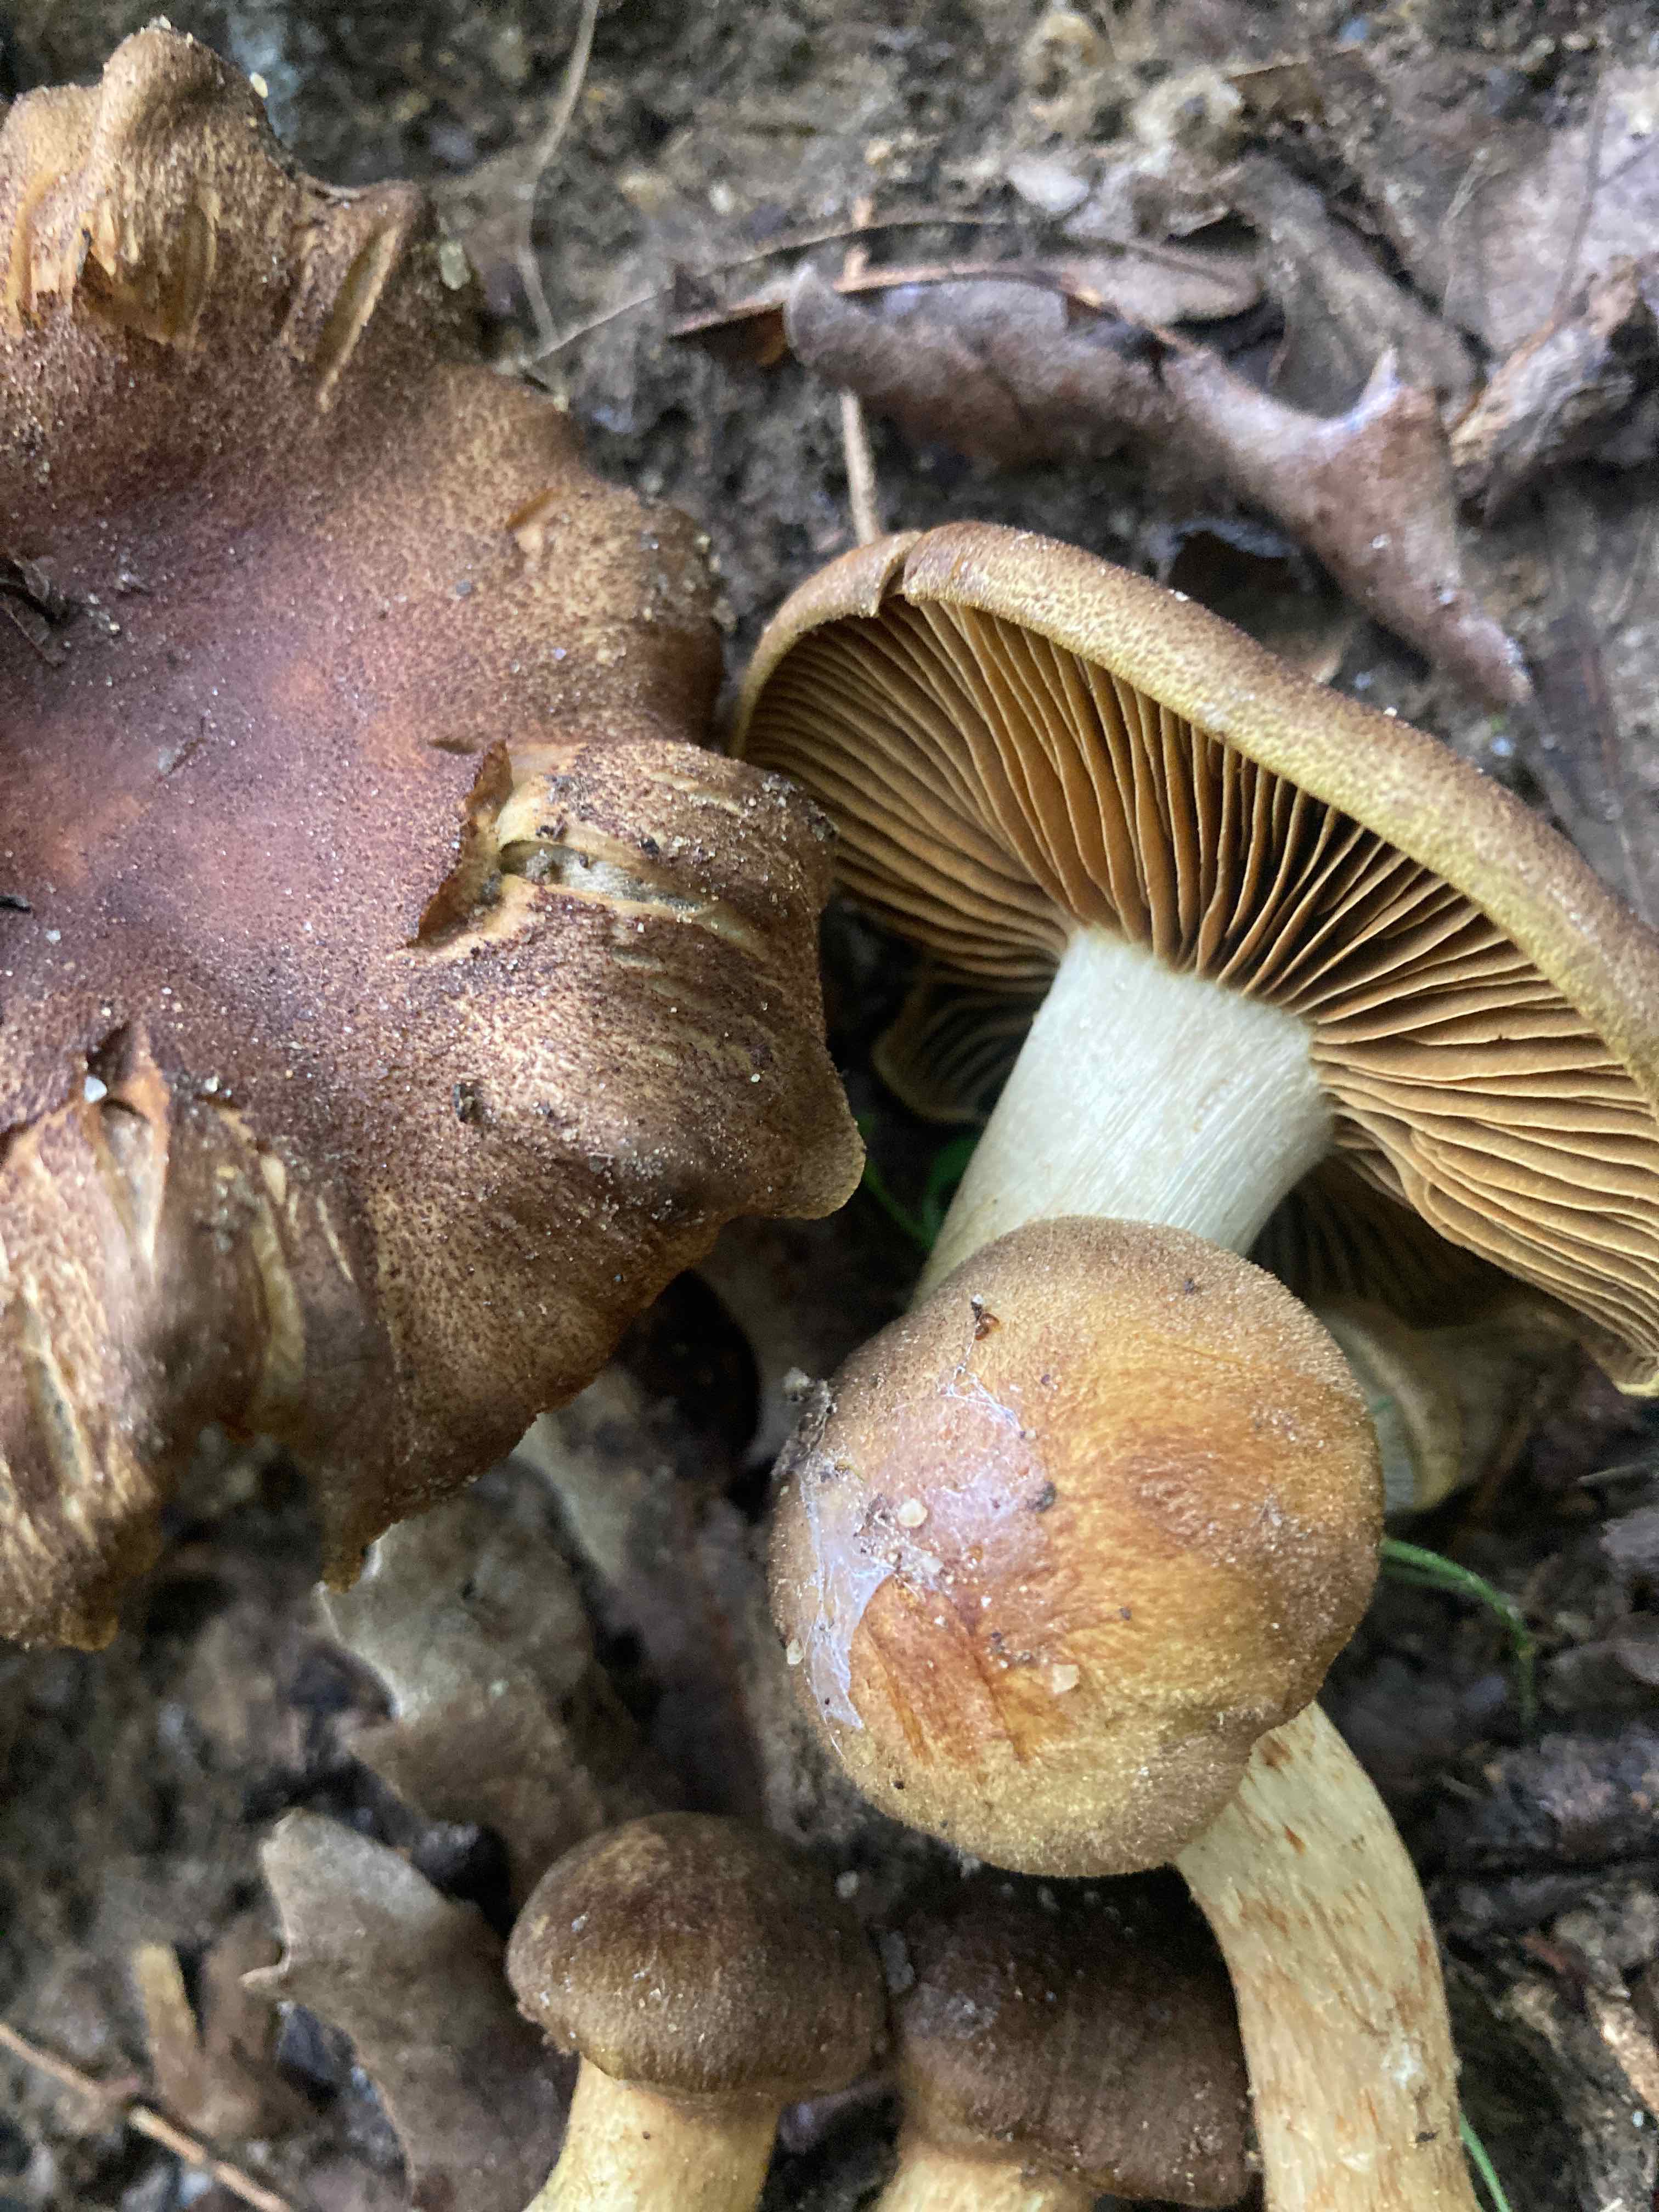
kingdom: Fungi
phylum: Basidiomycota
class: Agaricomycetes
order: Agaricales
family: Cortinariaceae
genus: Cortinarius
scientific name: Cortinarius
